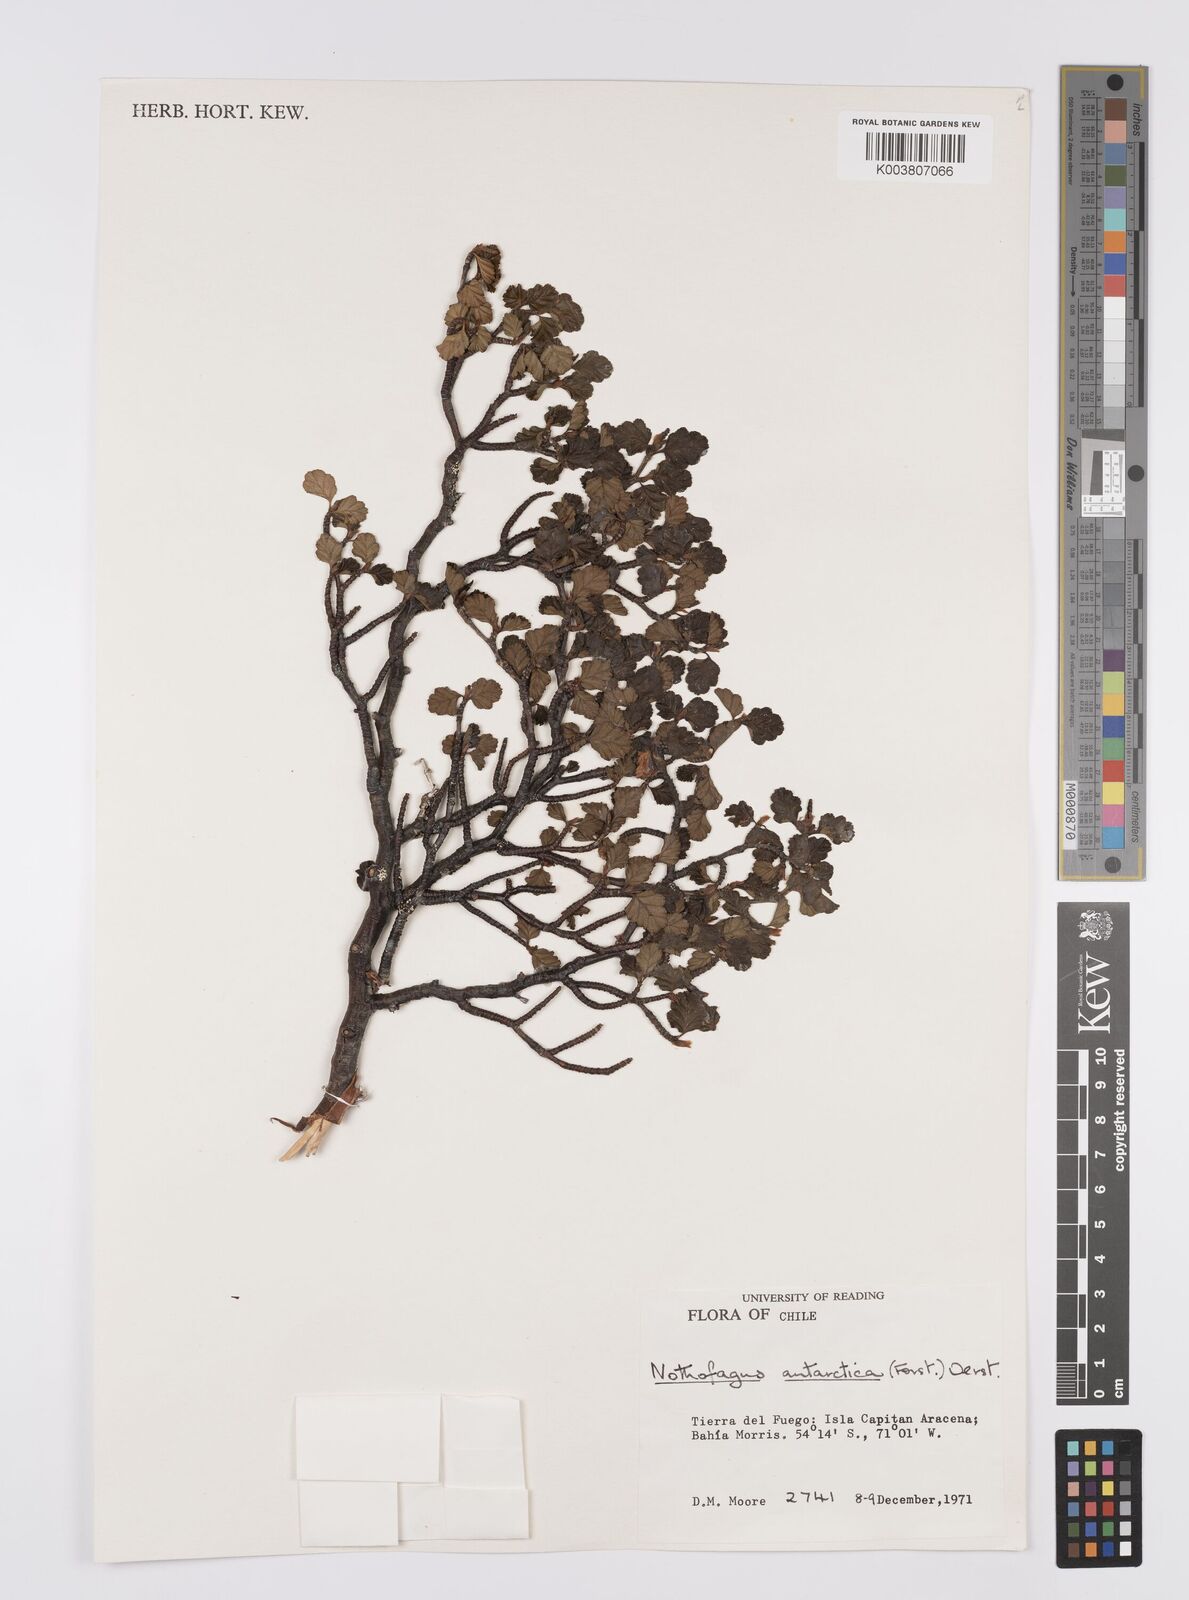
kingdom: Plantae
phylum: Tracheophyta
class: Magnoliopsida
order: Fagales
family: Nothofagaceae
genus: Nothofagus
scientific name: Nothofagus antarctica
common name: Antarctic beech
